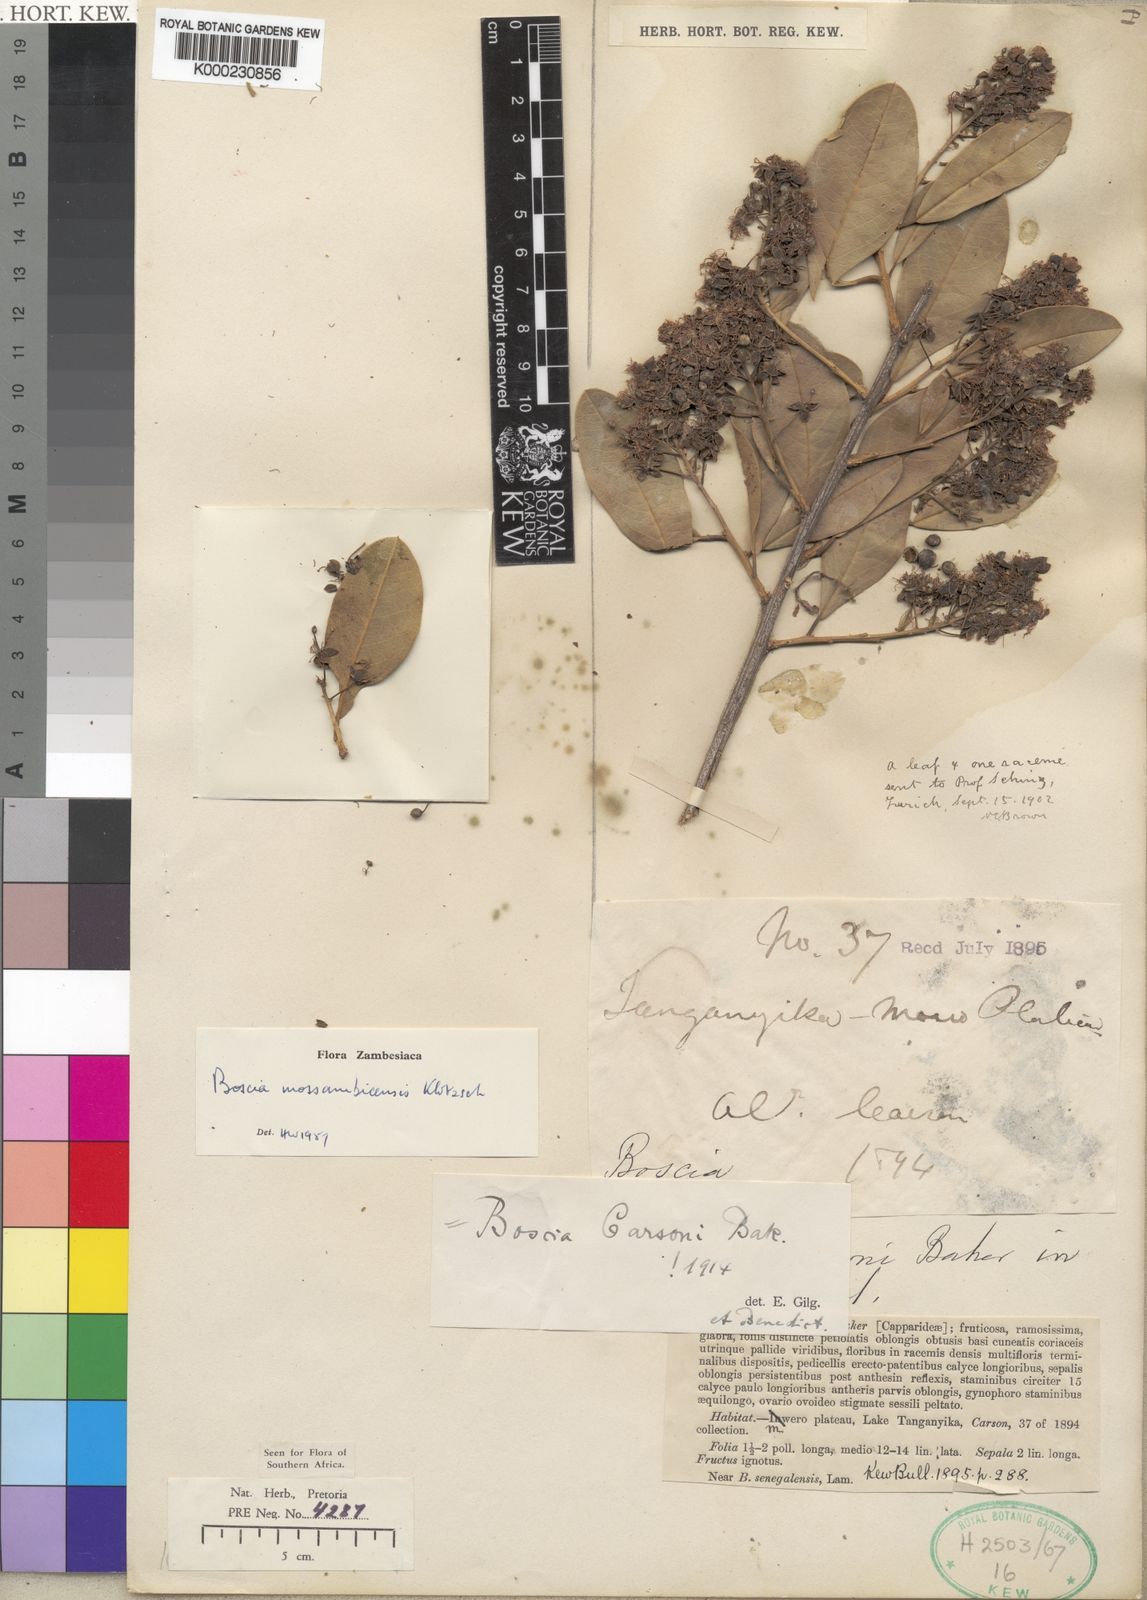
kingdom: Plantae
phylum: Tracheophyta
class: Magnoliopsida
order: Brassicales
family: Capparaceae
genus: Boscia
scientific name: Boscia mossambicensis
